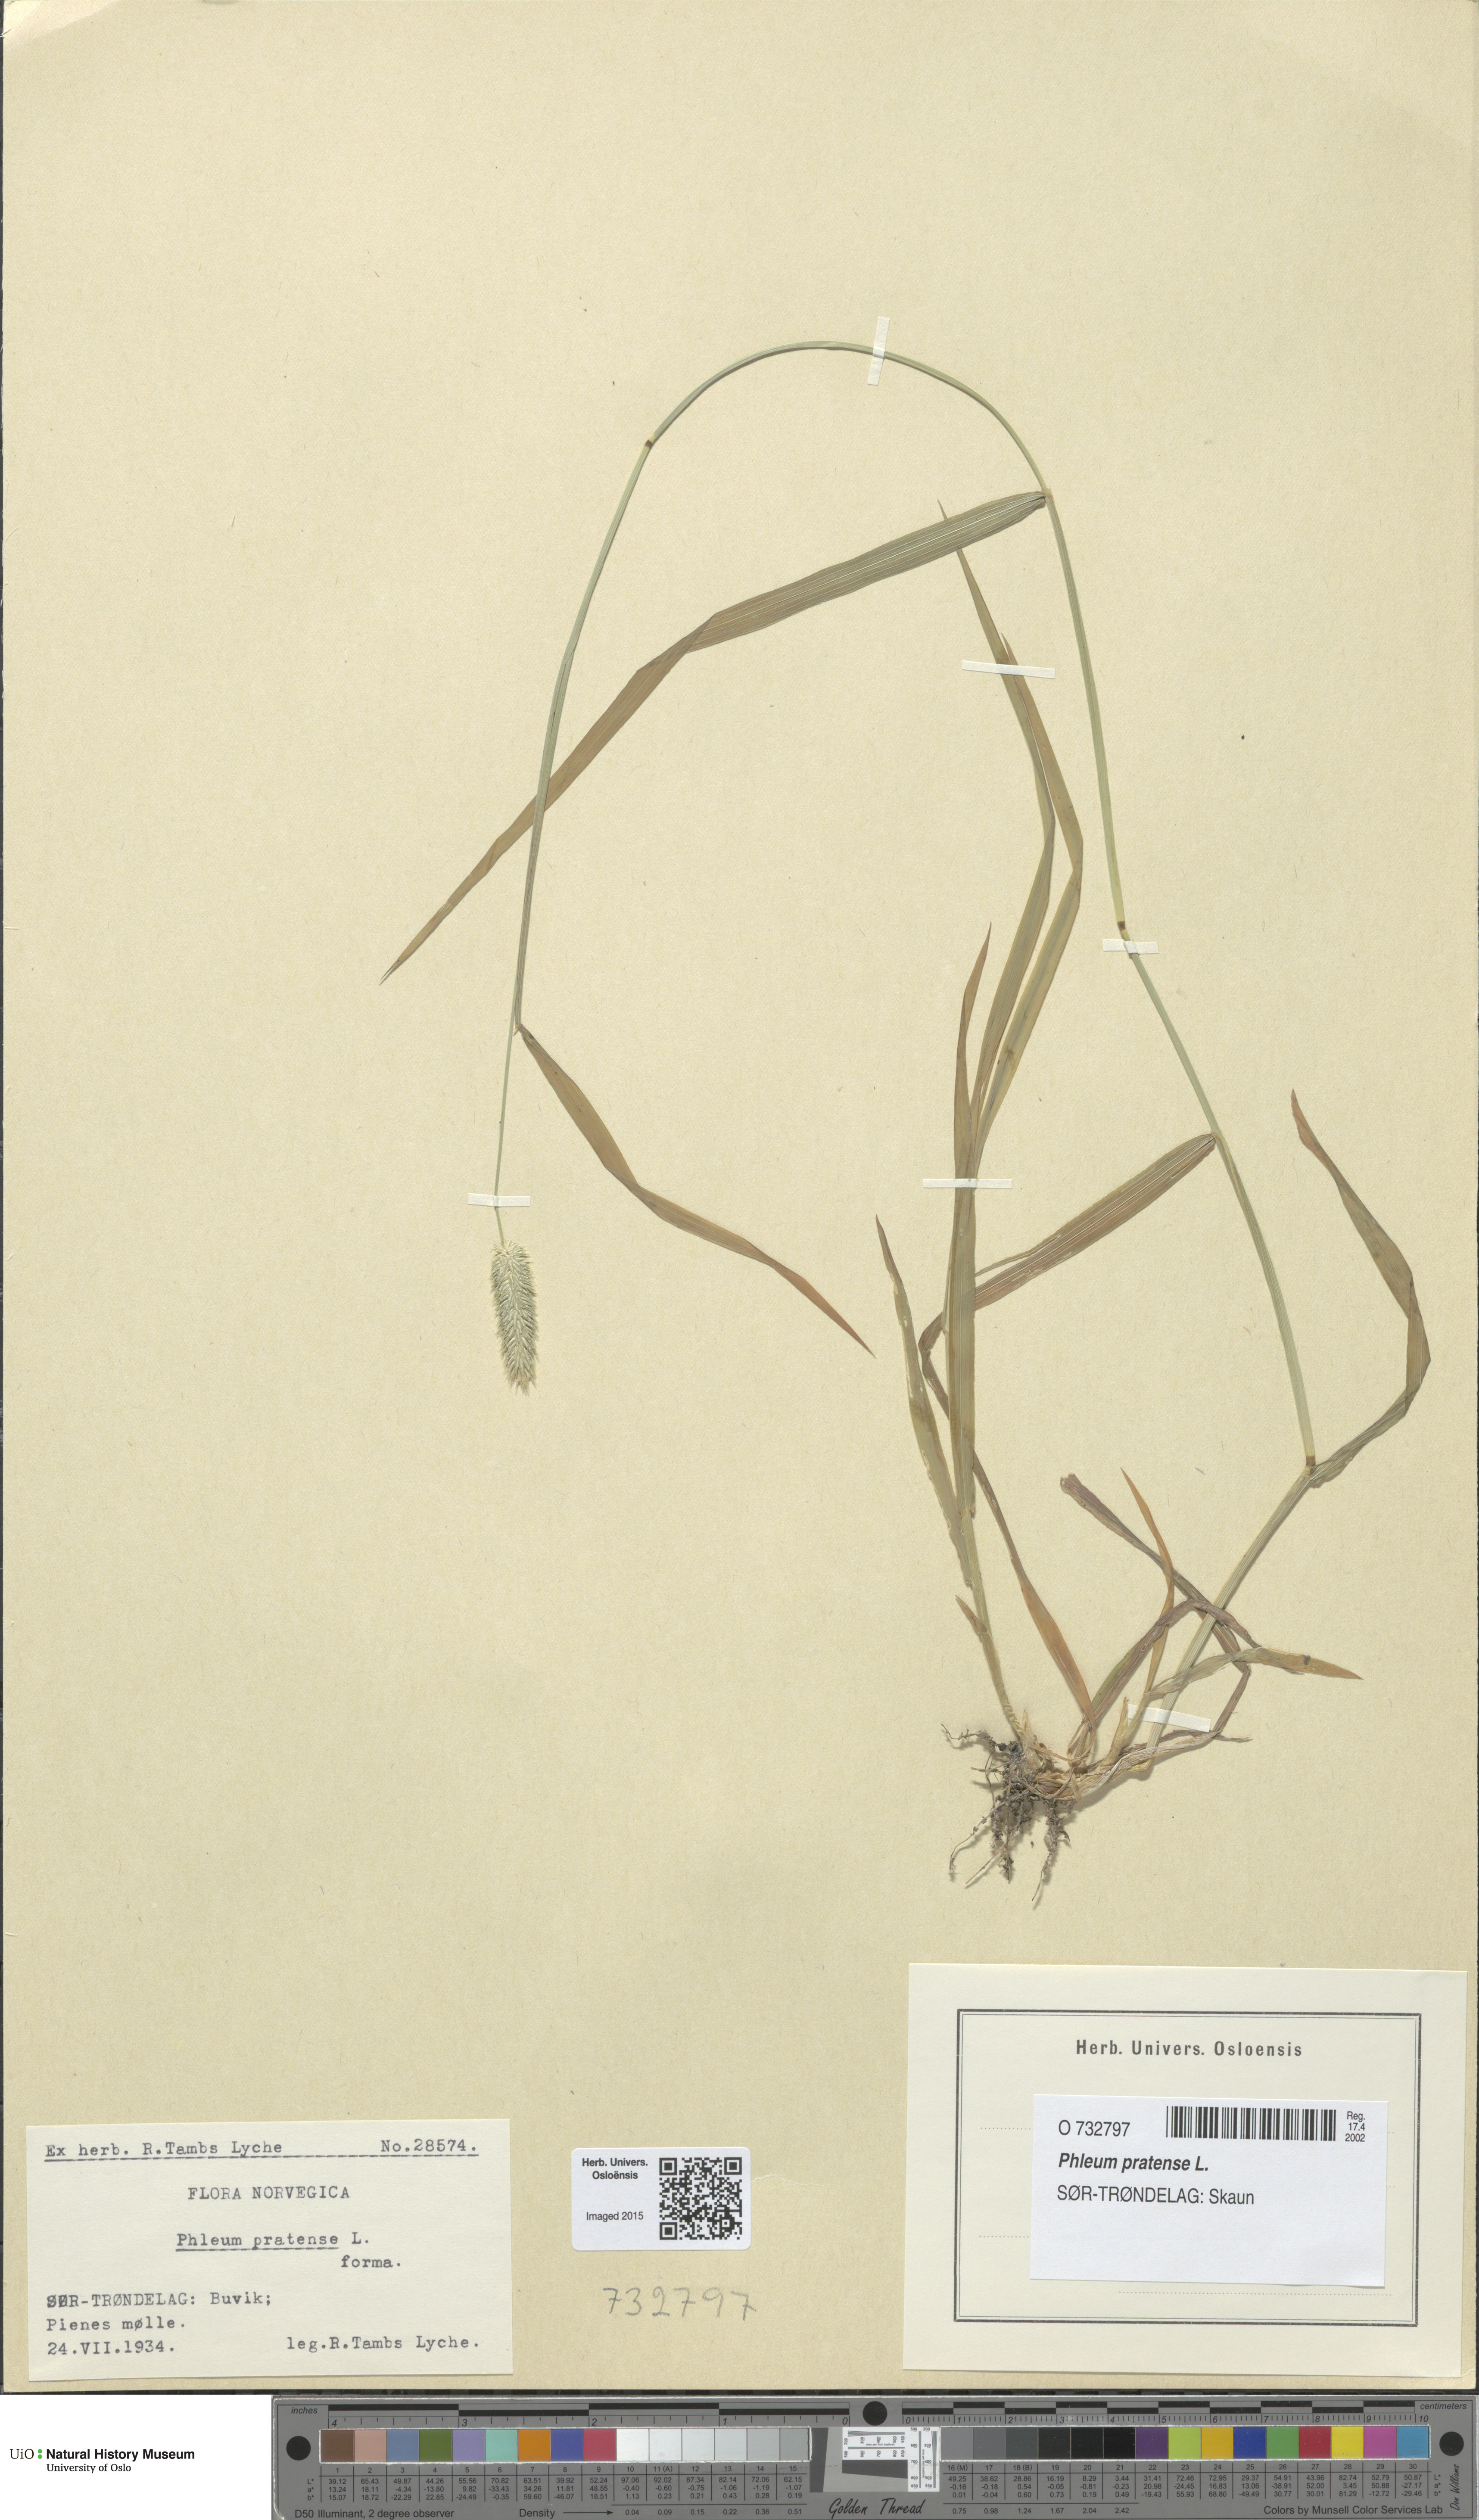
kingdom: Plantae
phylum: Tracheophyta
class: Liliopsida
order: Poales
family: Poaceae
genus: Phleum
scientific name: Phleum pratense
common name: Timothy grass
